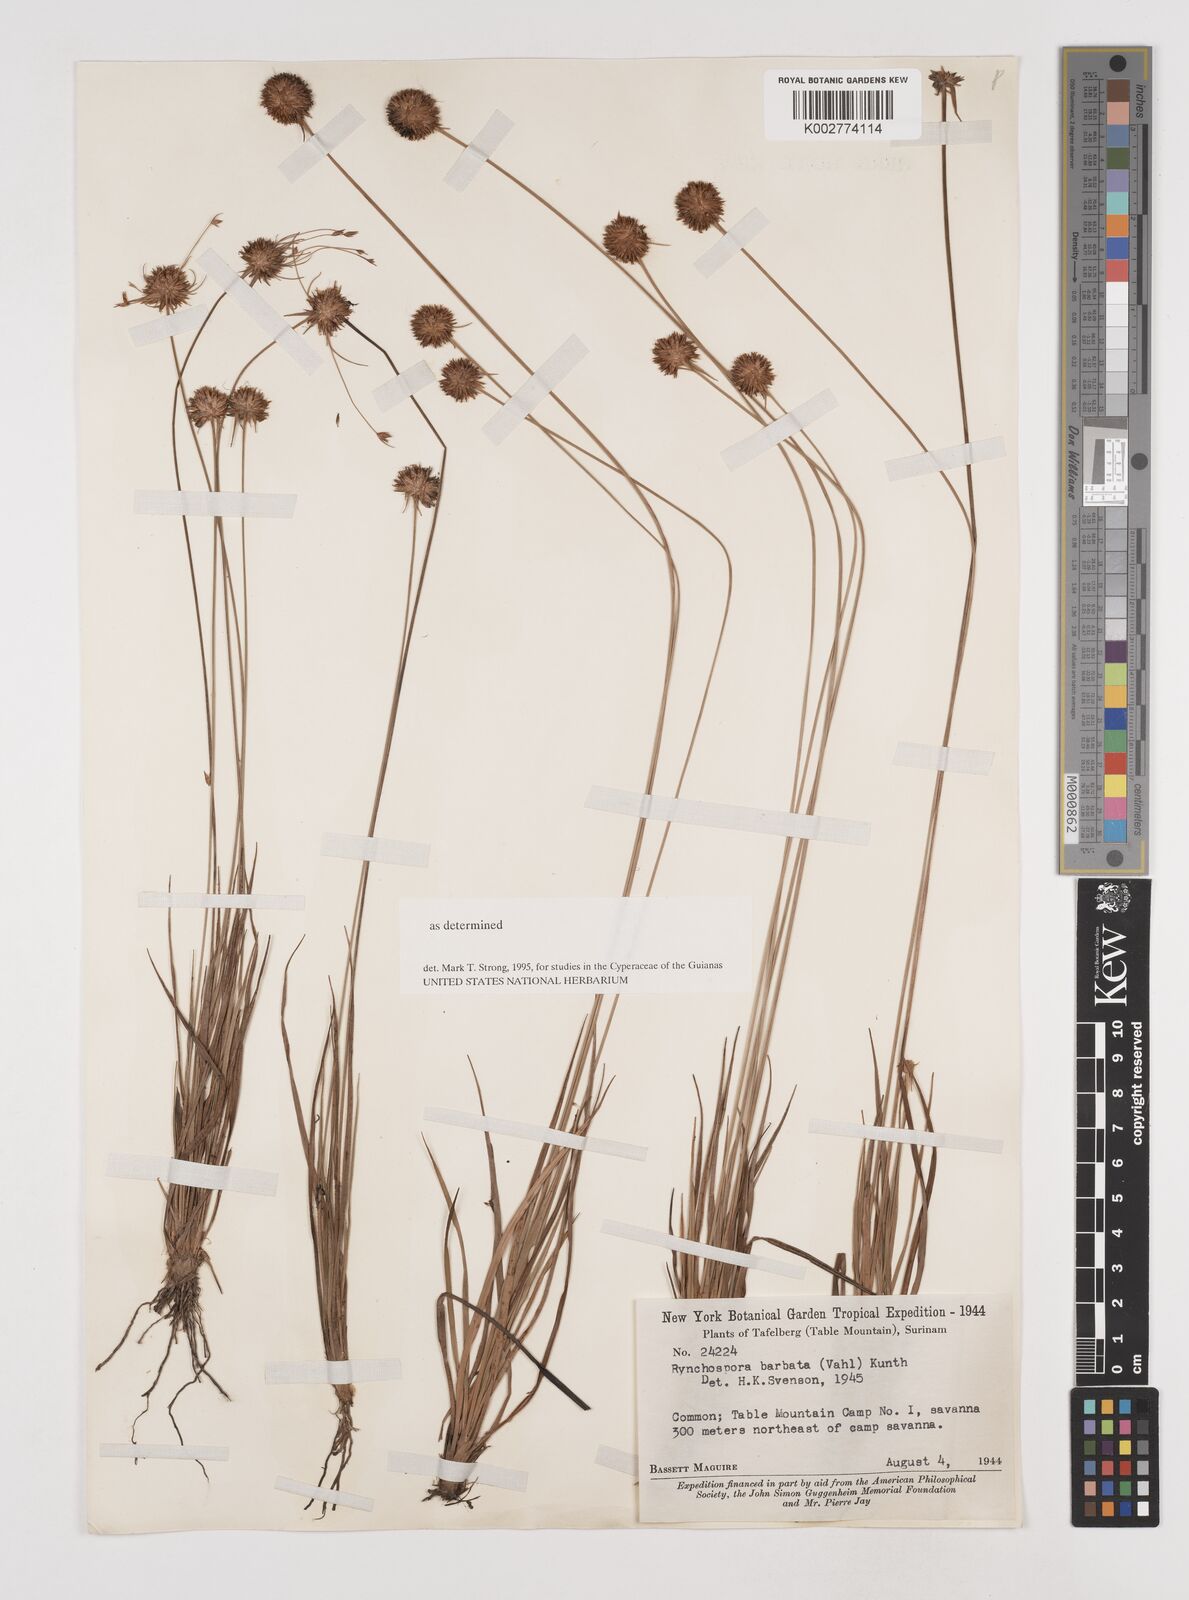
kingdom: Plantae
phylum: Tracheophyta
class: Liliopsida
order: Poales
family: Cyperaceae
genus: Rhynchospora
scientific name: Rhynchospora barbata
